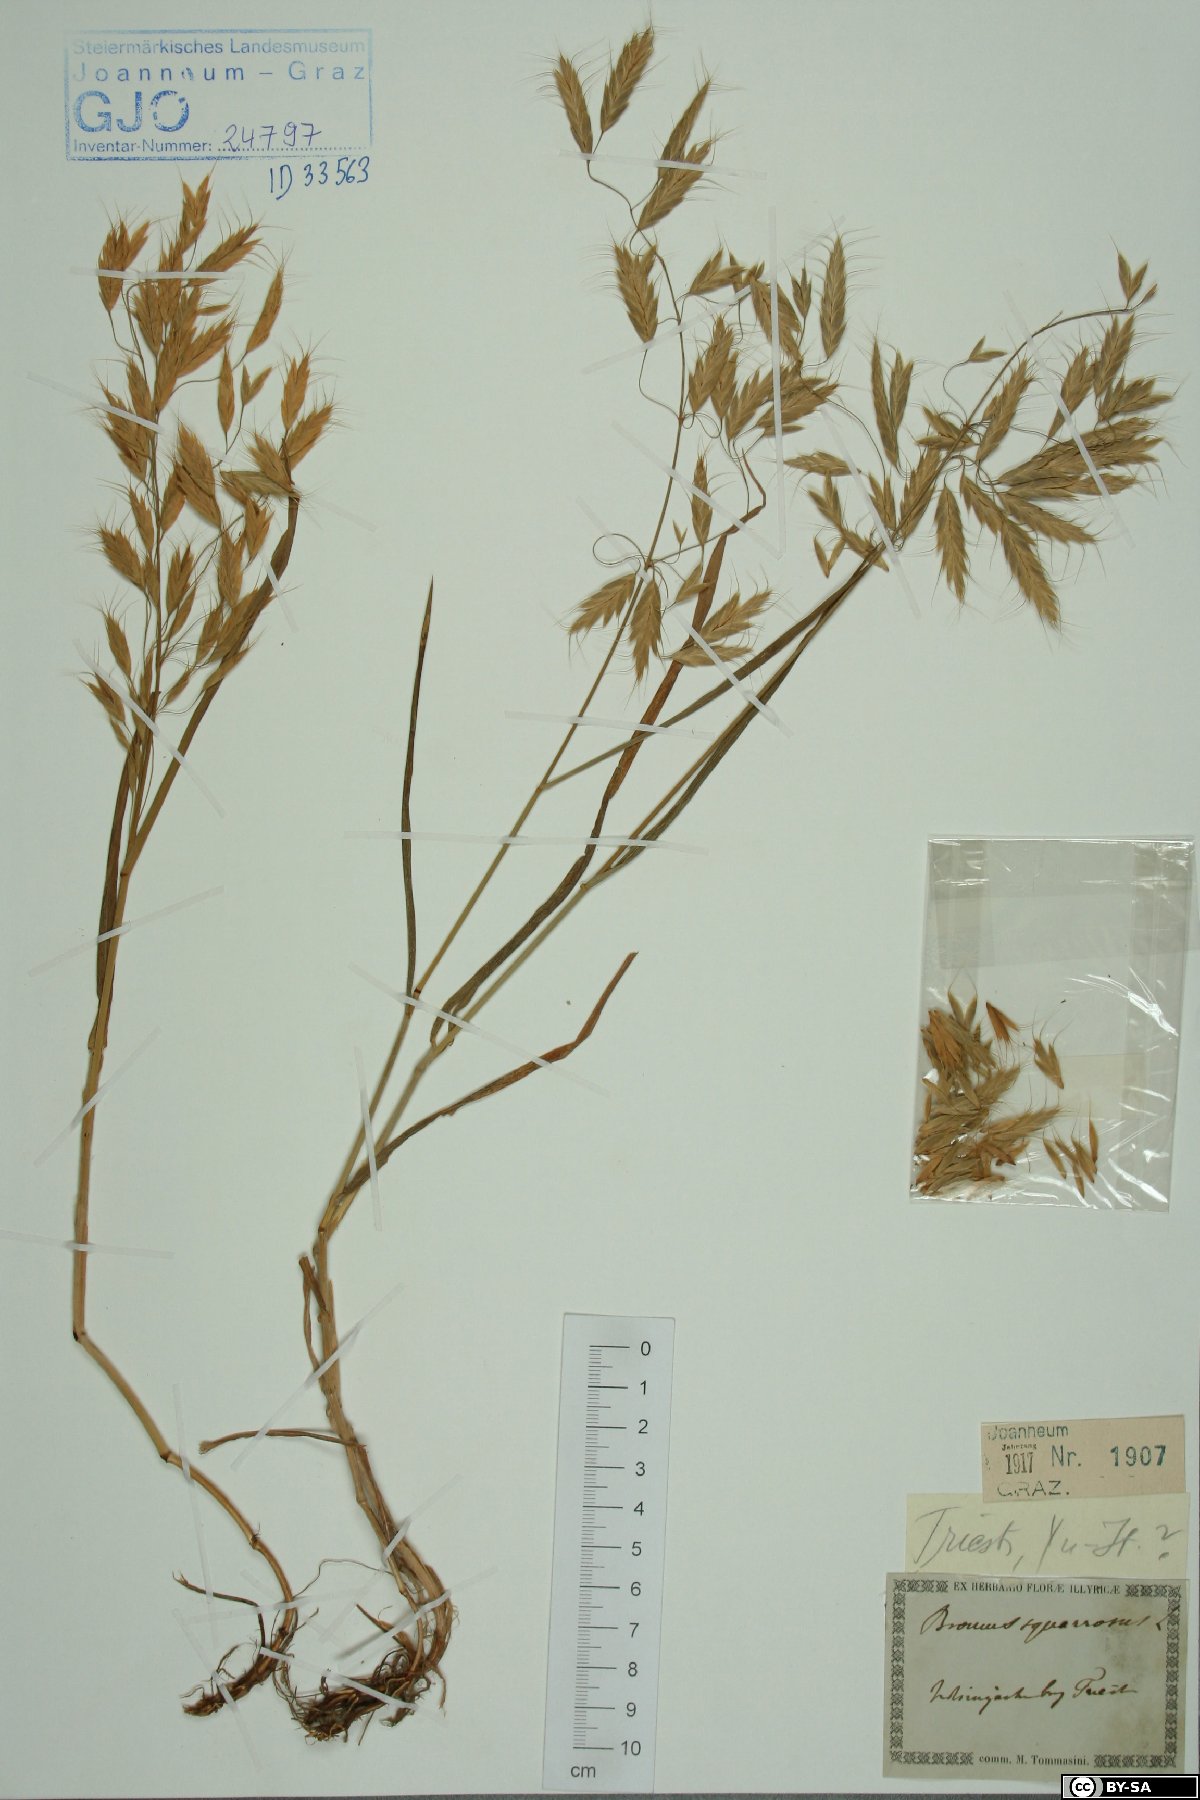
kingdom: Plantae
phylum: Tracheophyta
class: Liliopsida
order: Poales
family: Poaceae
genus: Bromus
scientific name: Bromus squarrosus
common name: Corn brome
